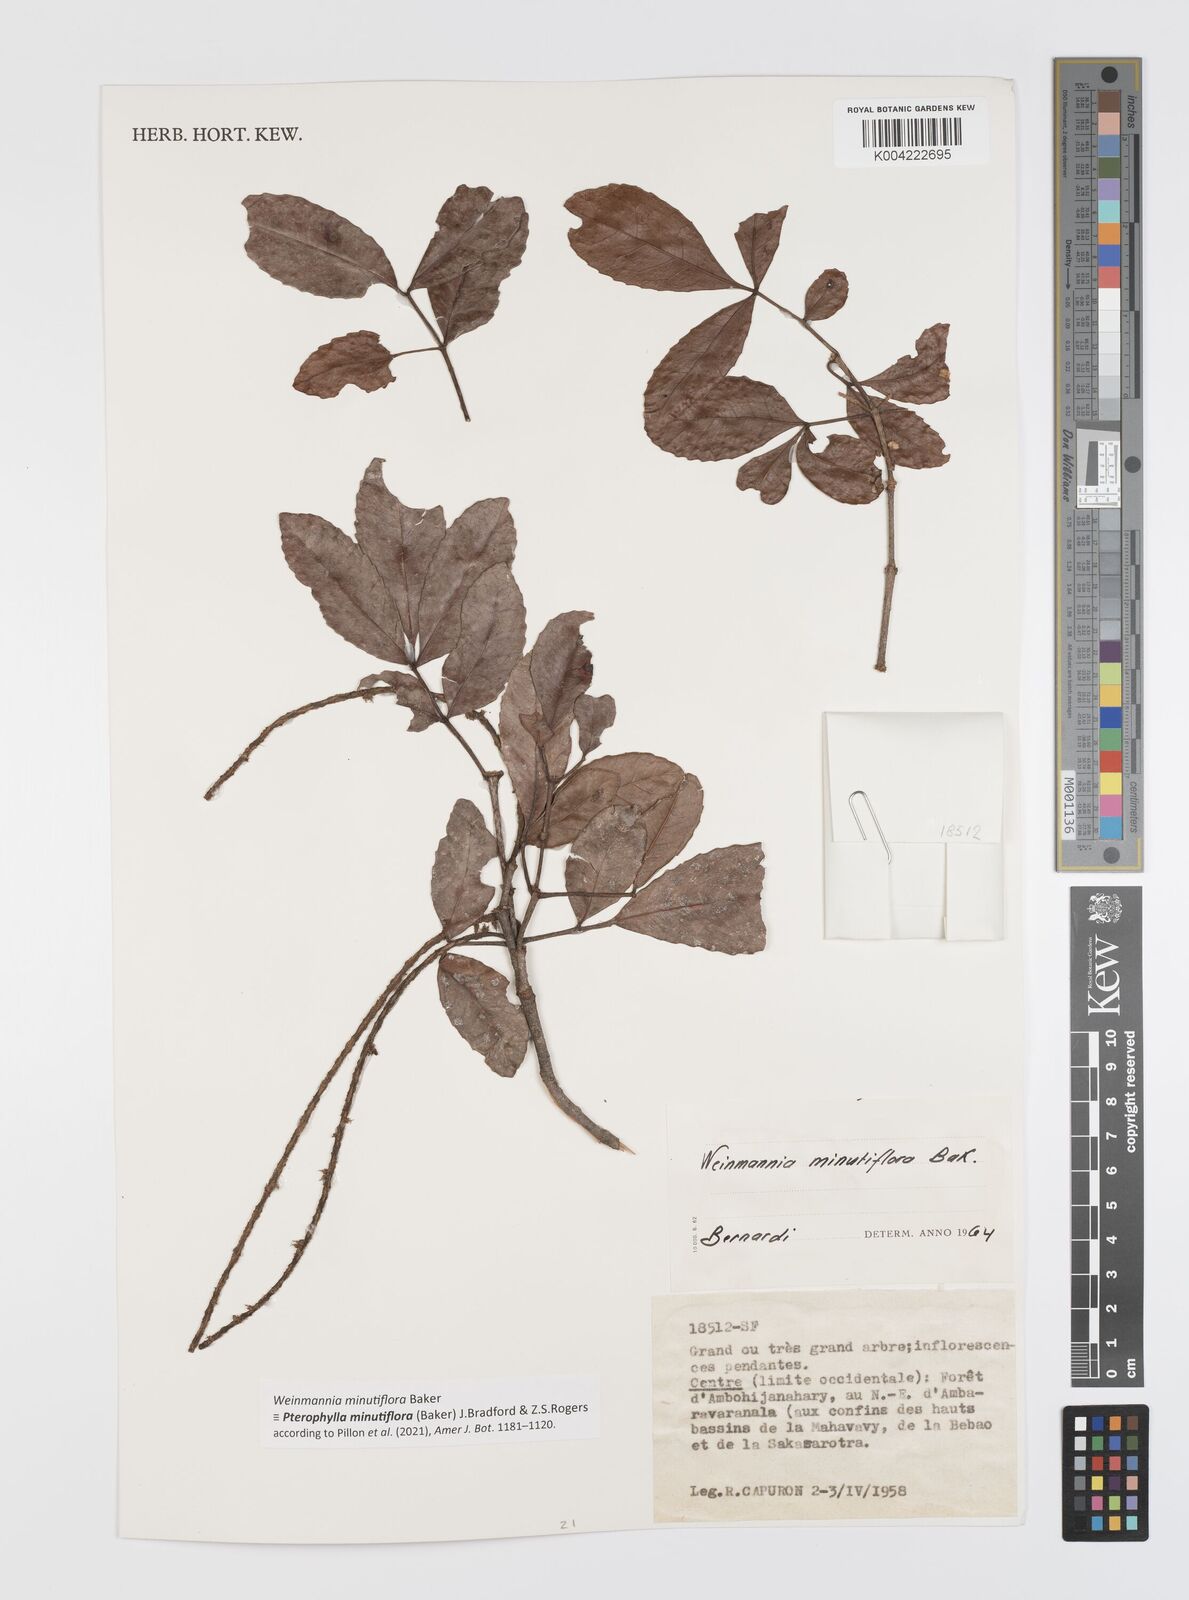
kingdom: Plantae
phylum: Tracheophyta
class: Magnoliopsida
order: Oxalidales
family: Cunoniaceae
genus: Pterophylla
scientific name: Pterophylla
